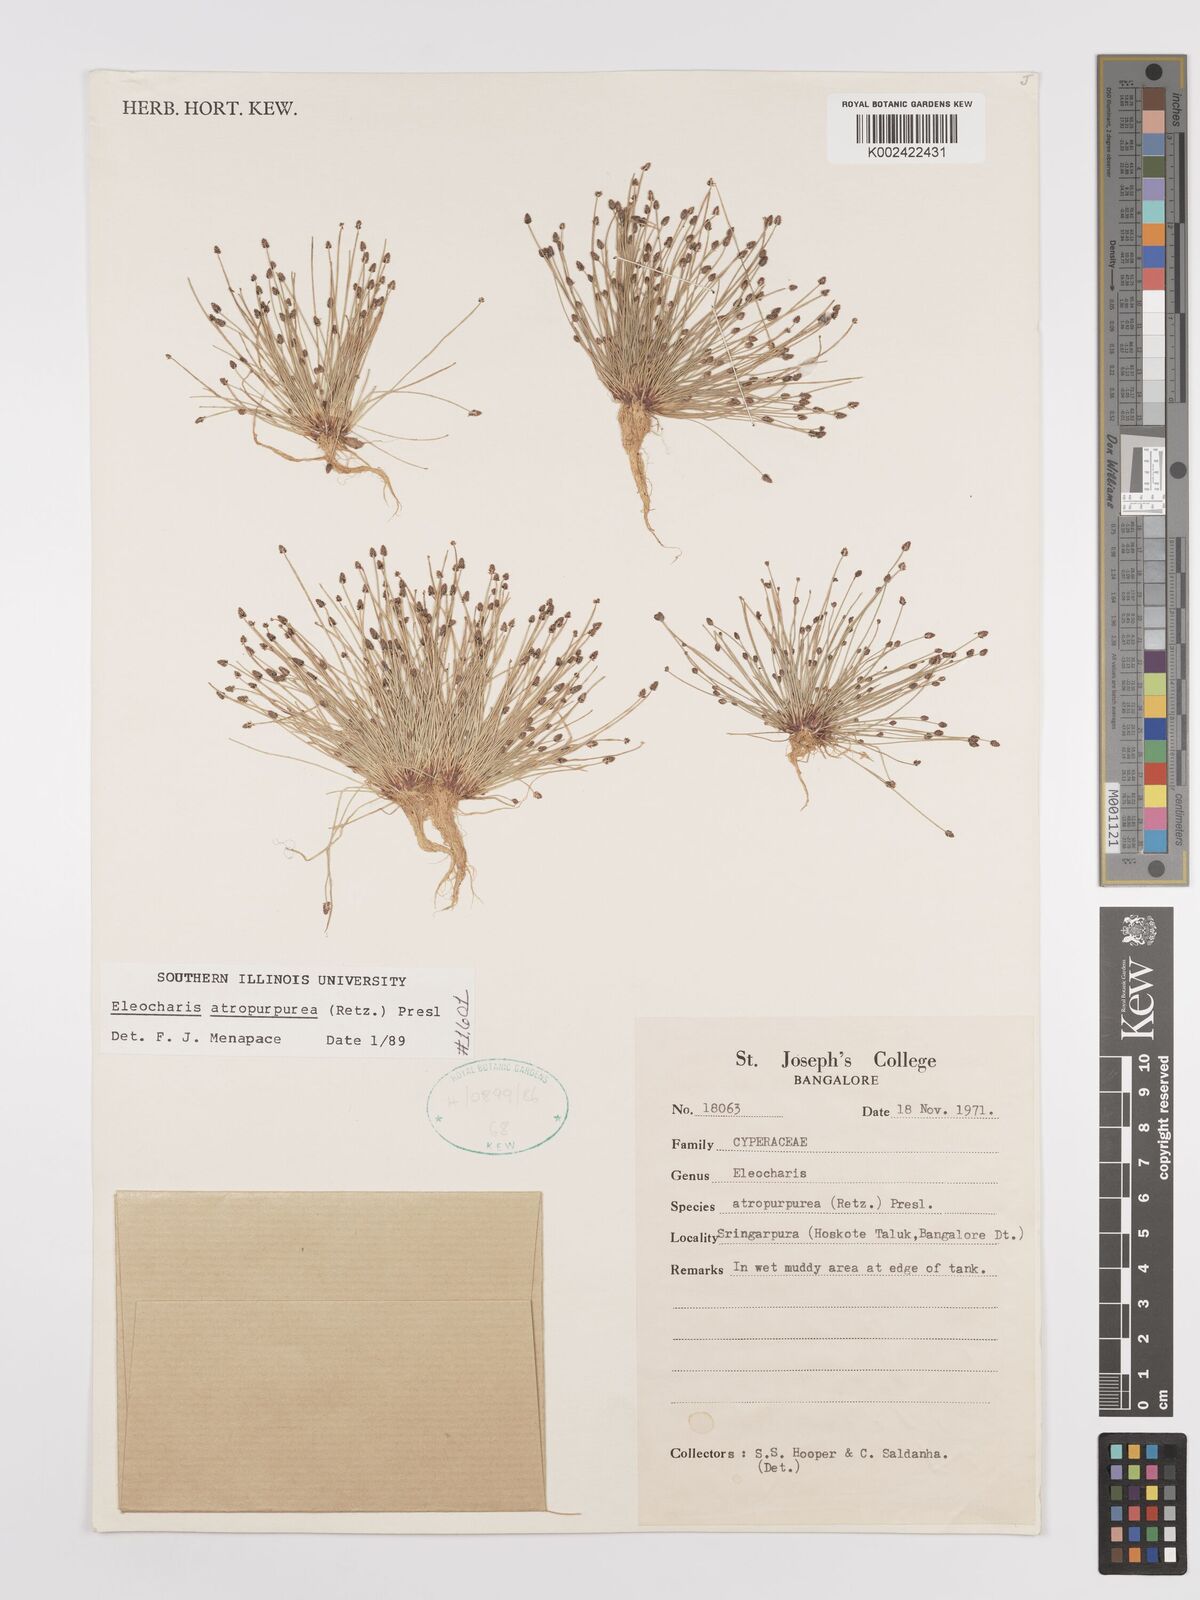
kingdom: Plantae
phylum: Tracheophyta
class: Liliopsida
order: Poales
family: Cyperaceae
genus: Eleocharis
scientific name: Eleocharis atropurpurea
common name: Purple spikerush
